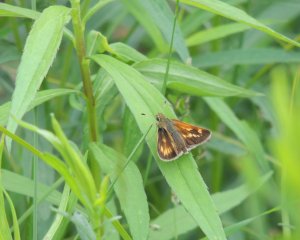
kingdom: Animalia
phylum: Arthropoda
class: Insecta
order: Lepidoptera
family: Hesperiidae
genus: Polites
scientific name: Polites
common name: Long Dash Skipper
